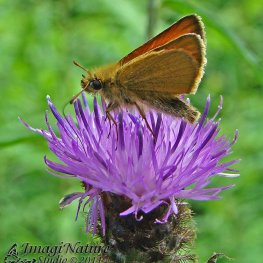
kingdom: Animalia
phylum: Arthropoda
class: Insecta
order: Lepidoptera
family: Hesperiidae
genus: Thymelicus
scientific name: Thymelicus lineola
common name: European Skipper
